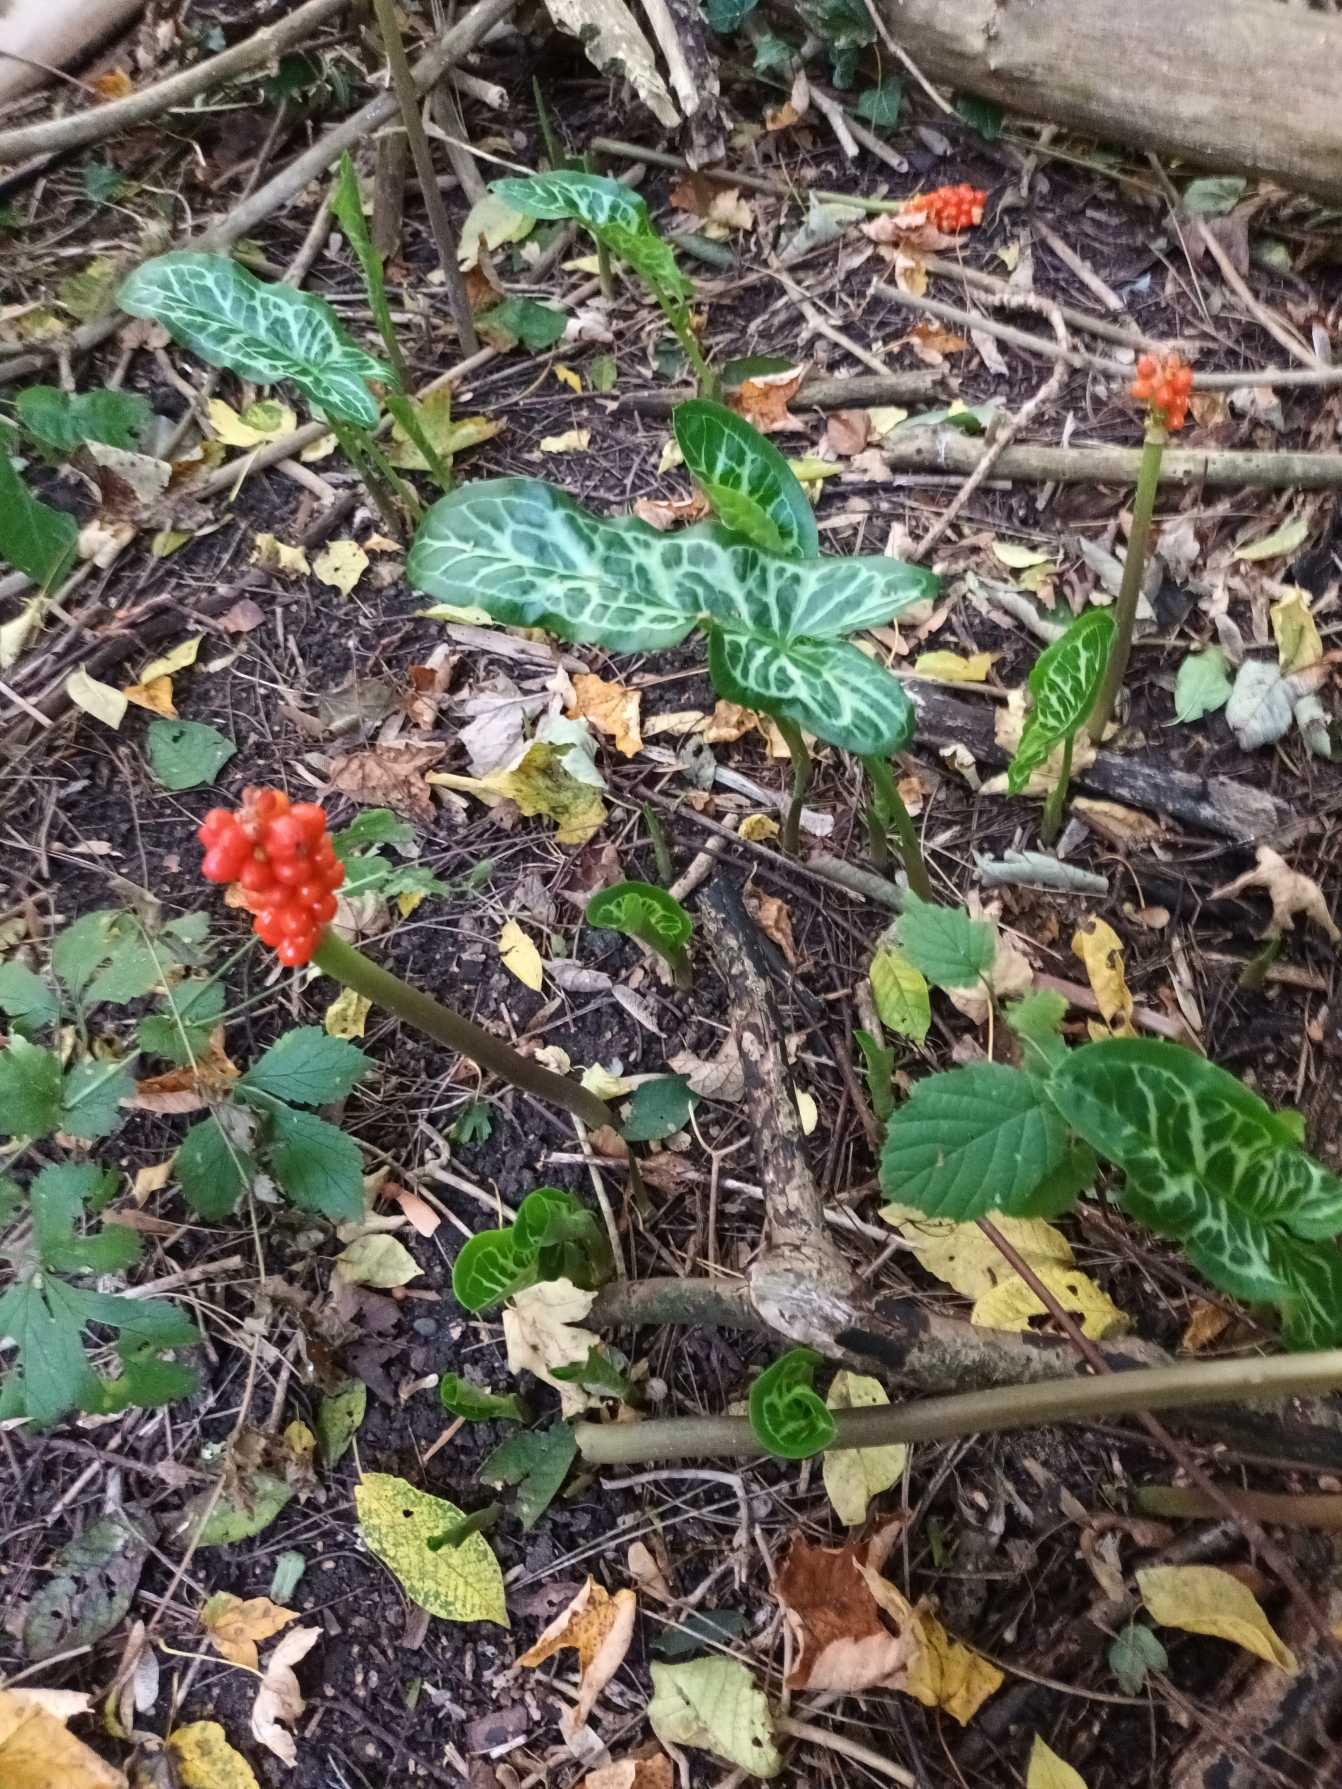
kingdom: Plantae
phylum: Tracheophyta
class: Liliopsida
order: Alismatales
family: Araceae
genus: Arum
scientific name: Arum italicum
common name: Italiensk arum
